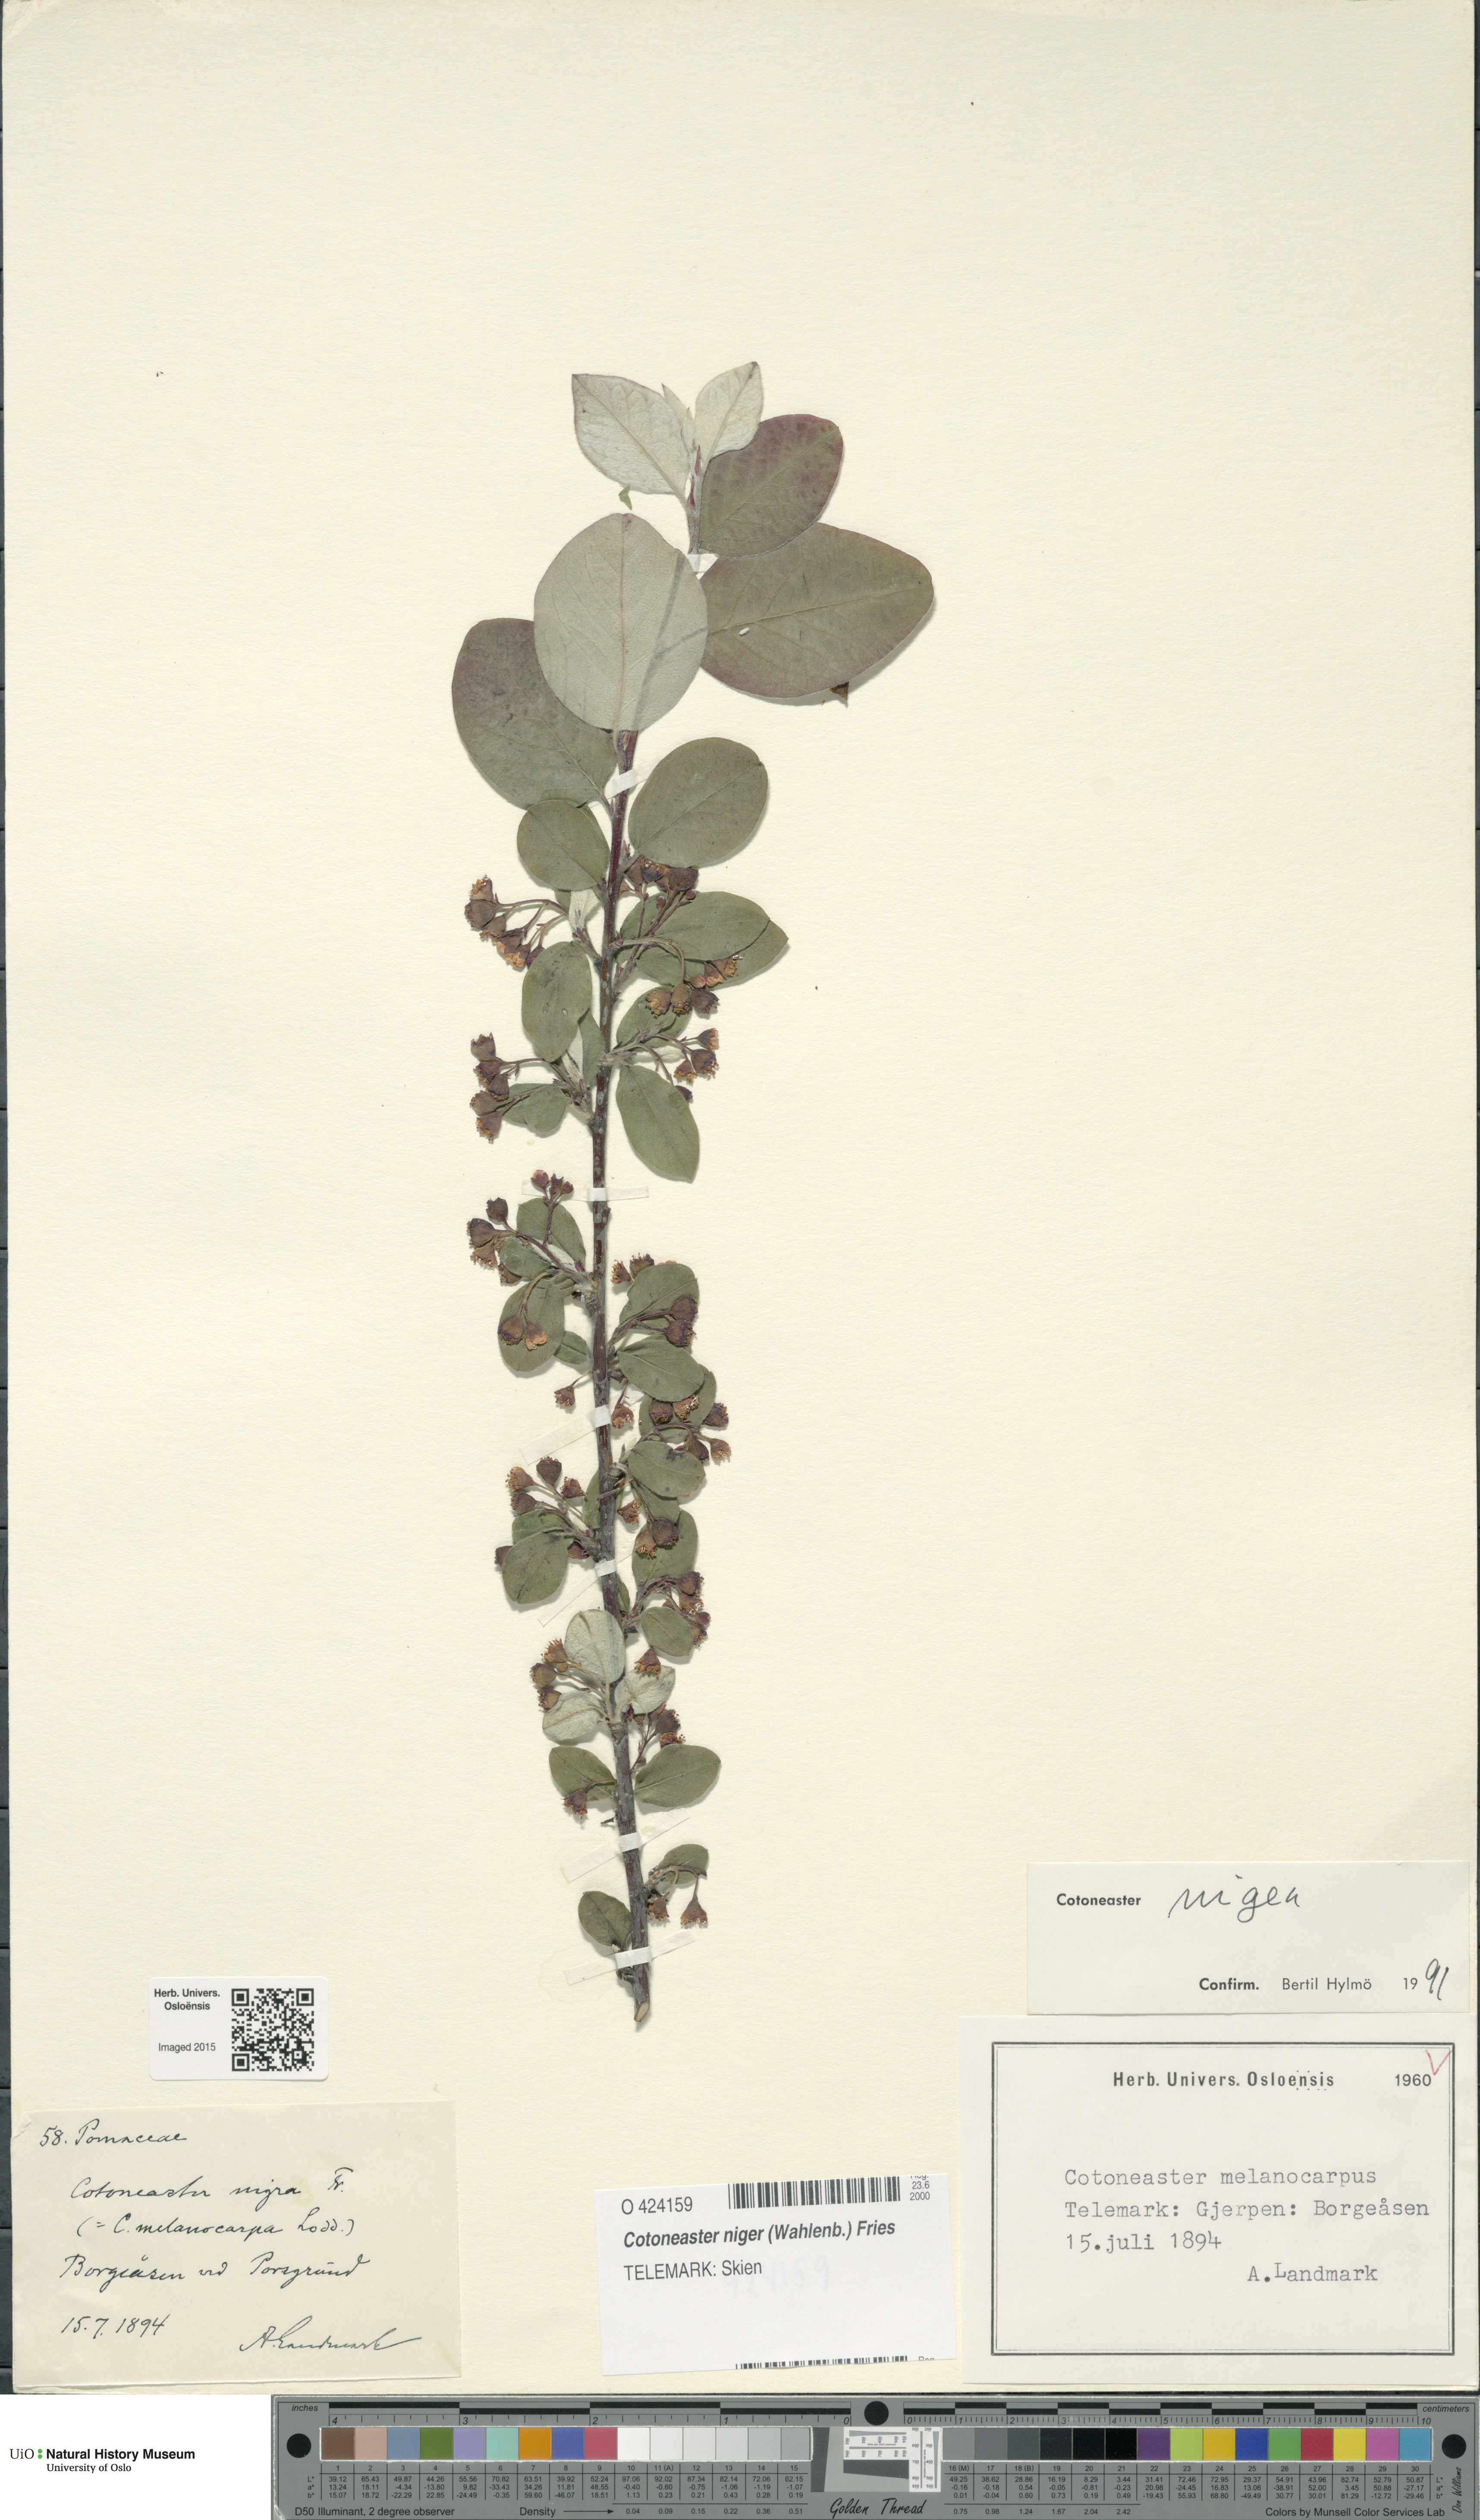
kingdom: Plantae
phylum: Tracheophyta
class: Magnoliopsida
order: Rosales
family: Rosaceae
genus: Cotoneaster
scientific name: Cotoneaster niger
